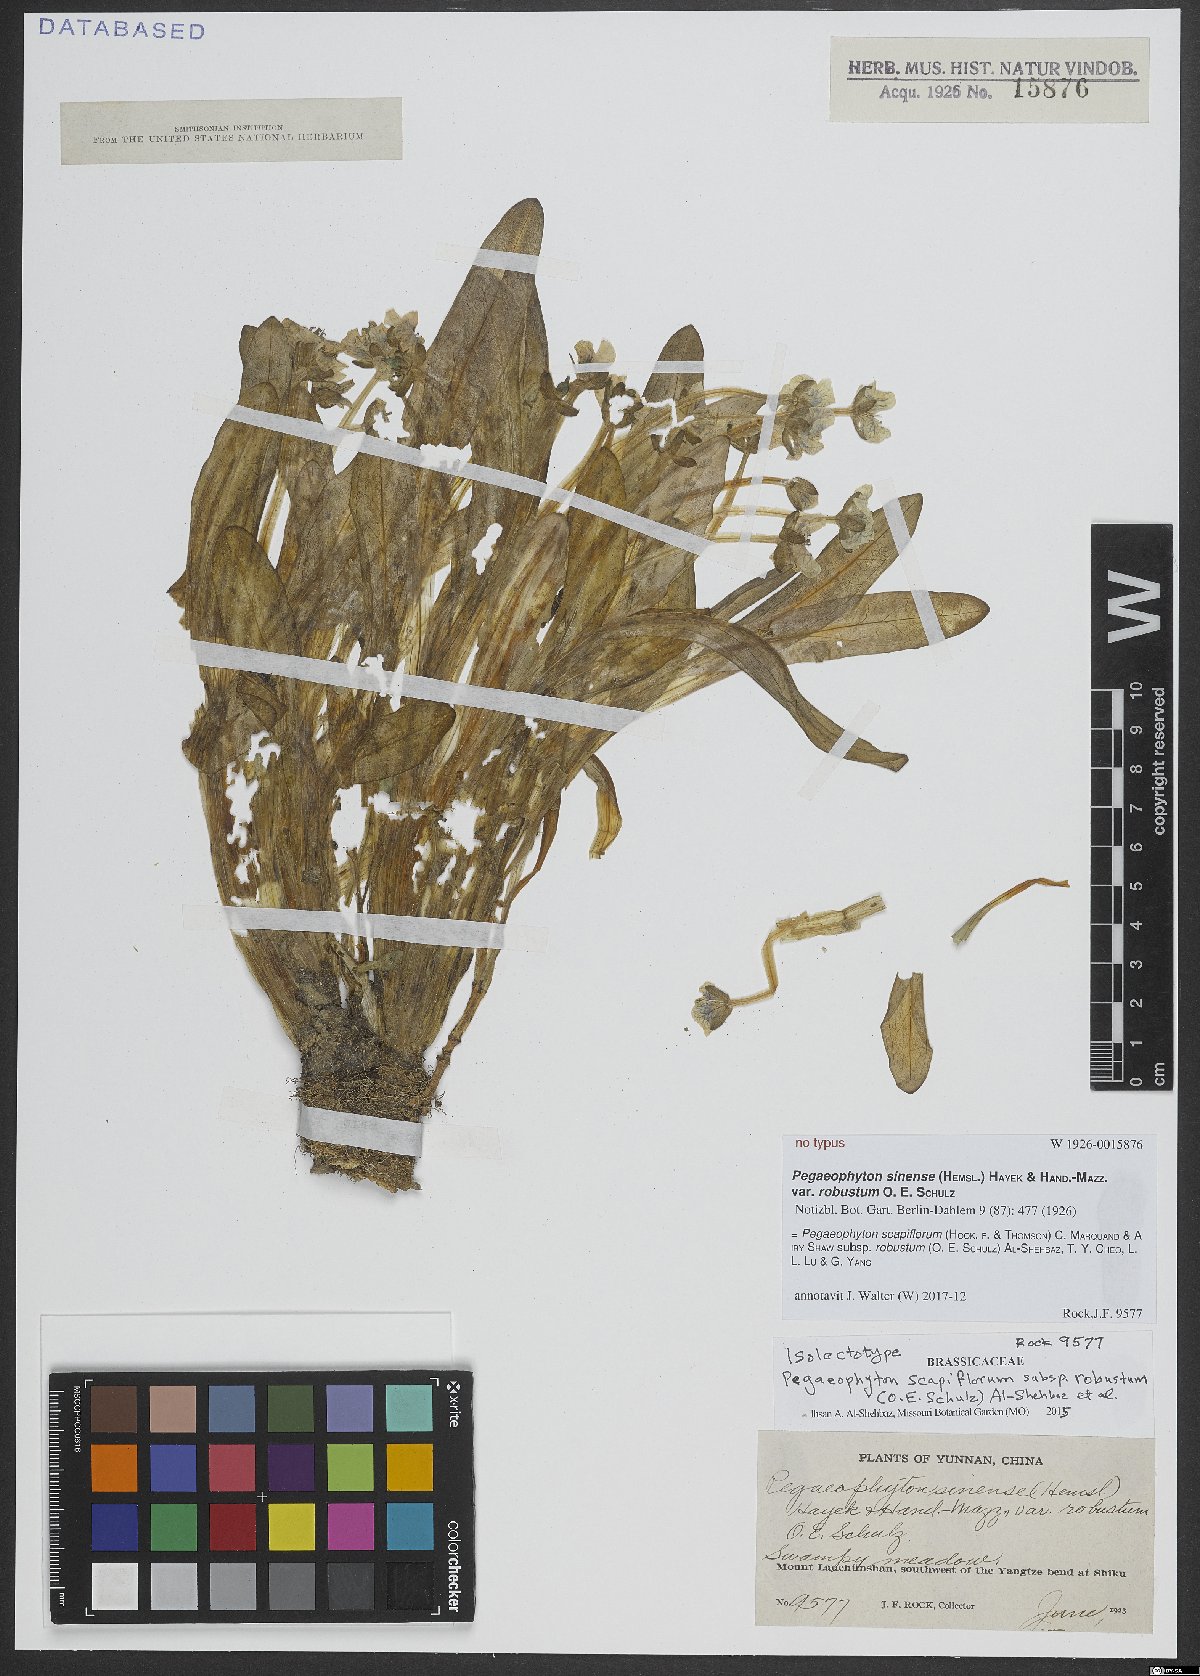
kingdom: Plantae
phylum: Tracheophyta
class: Magnoliopsida
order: Brassicales
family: Brassicaceae
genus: Eutrema
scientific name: Eutrema robustum
